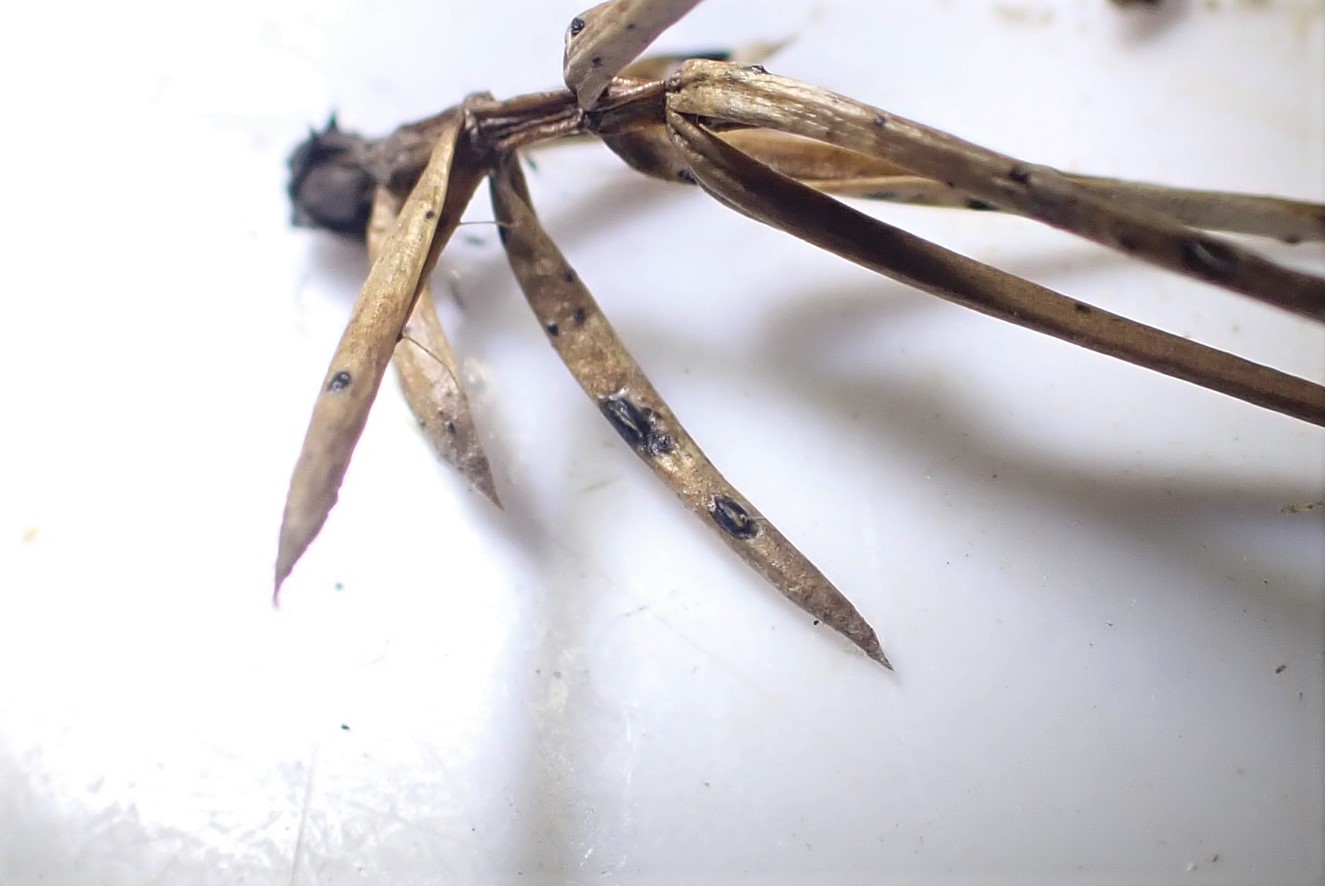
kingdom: Fungi
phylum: Ascomycota
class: Leotiomycetes
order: Rhytismatales
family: Rhytismataceae
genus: Lophodermium
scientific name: Lophodermium juniperinum
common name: ene-fureplet
